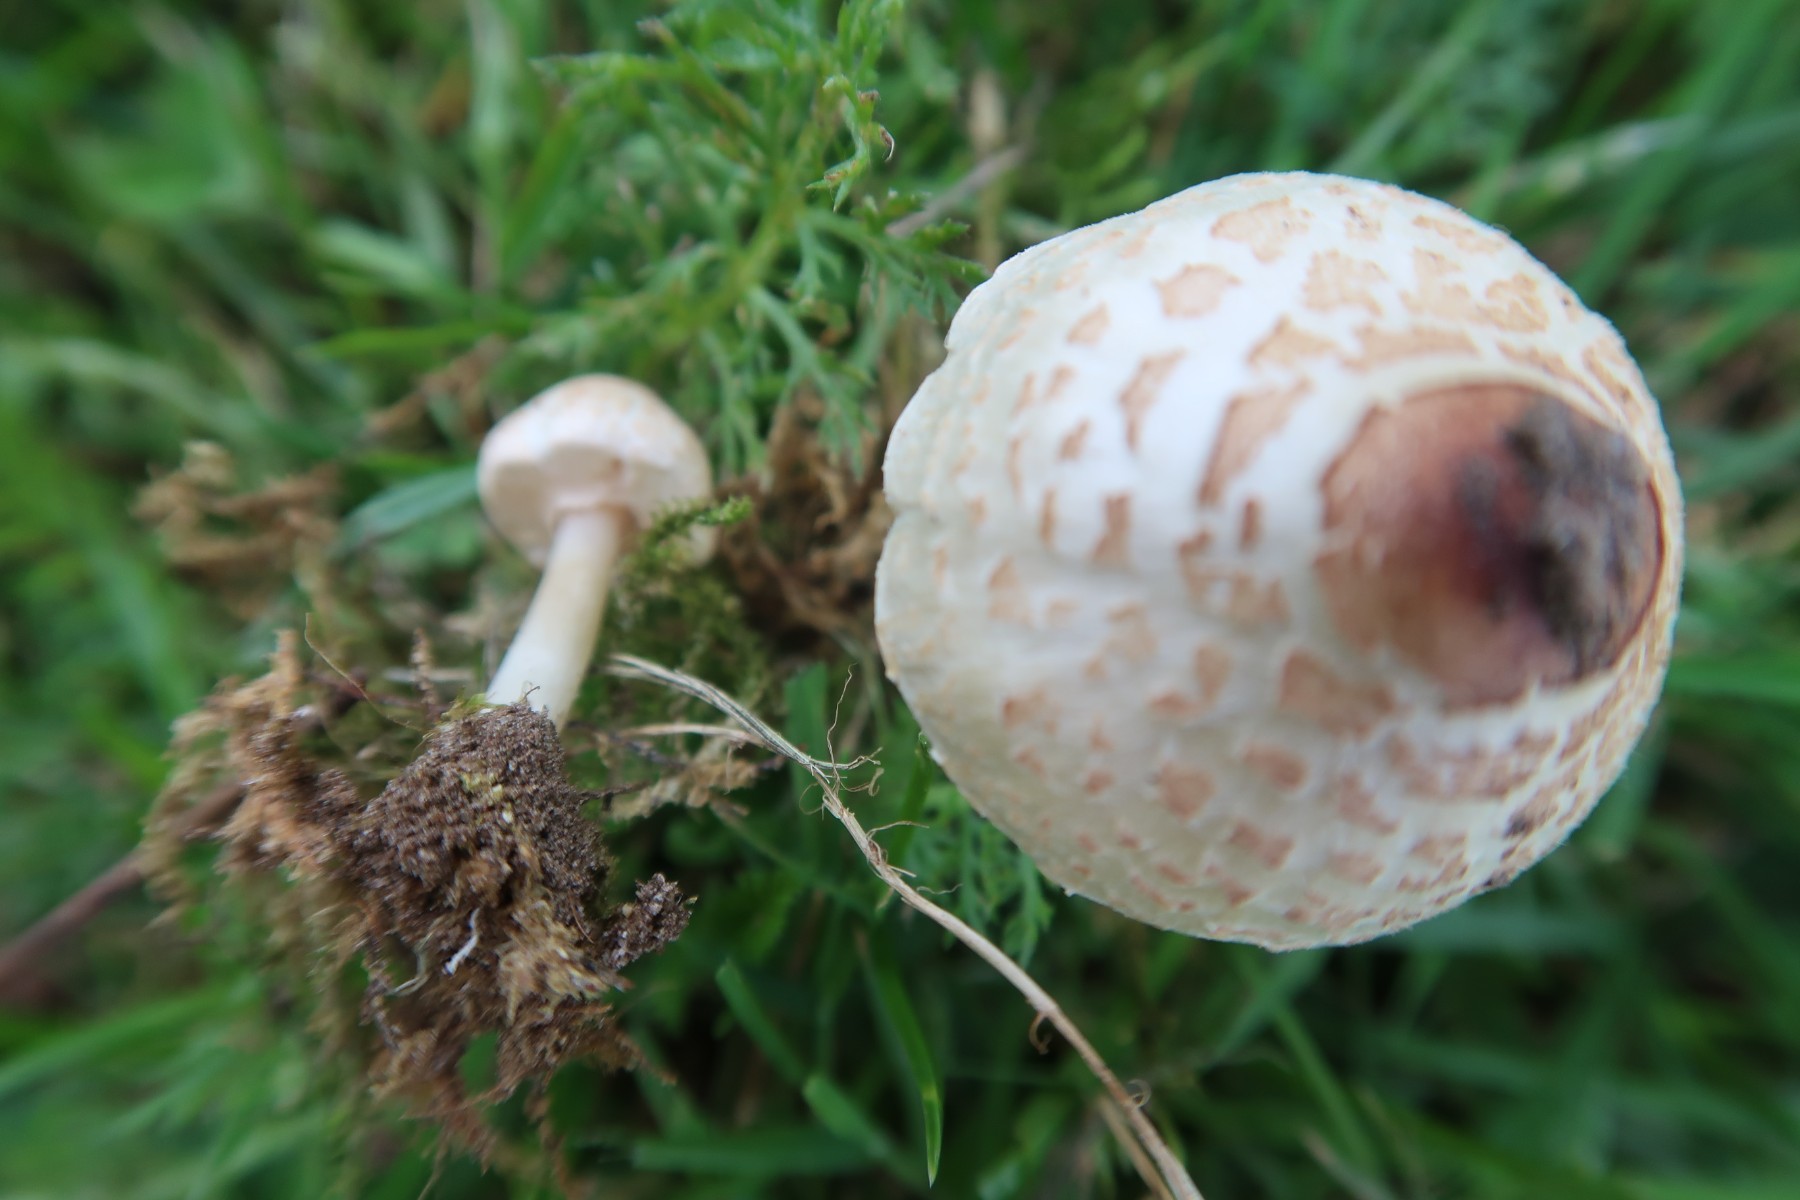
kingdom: Fungi
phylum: Basidiomycota
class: Agaricomycetes
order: Agaricales
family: Agaricaceae
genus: Lepiota
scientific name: Lepiota cristata
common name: stinkende parasolhat
